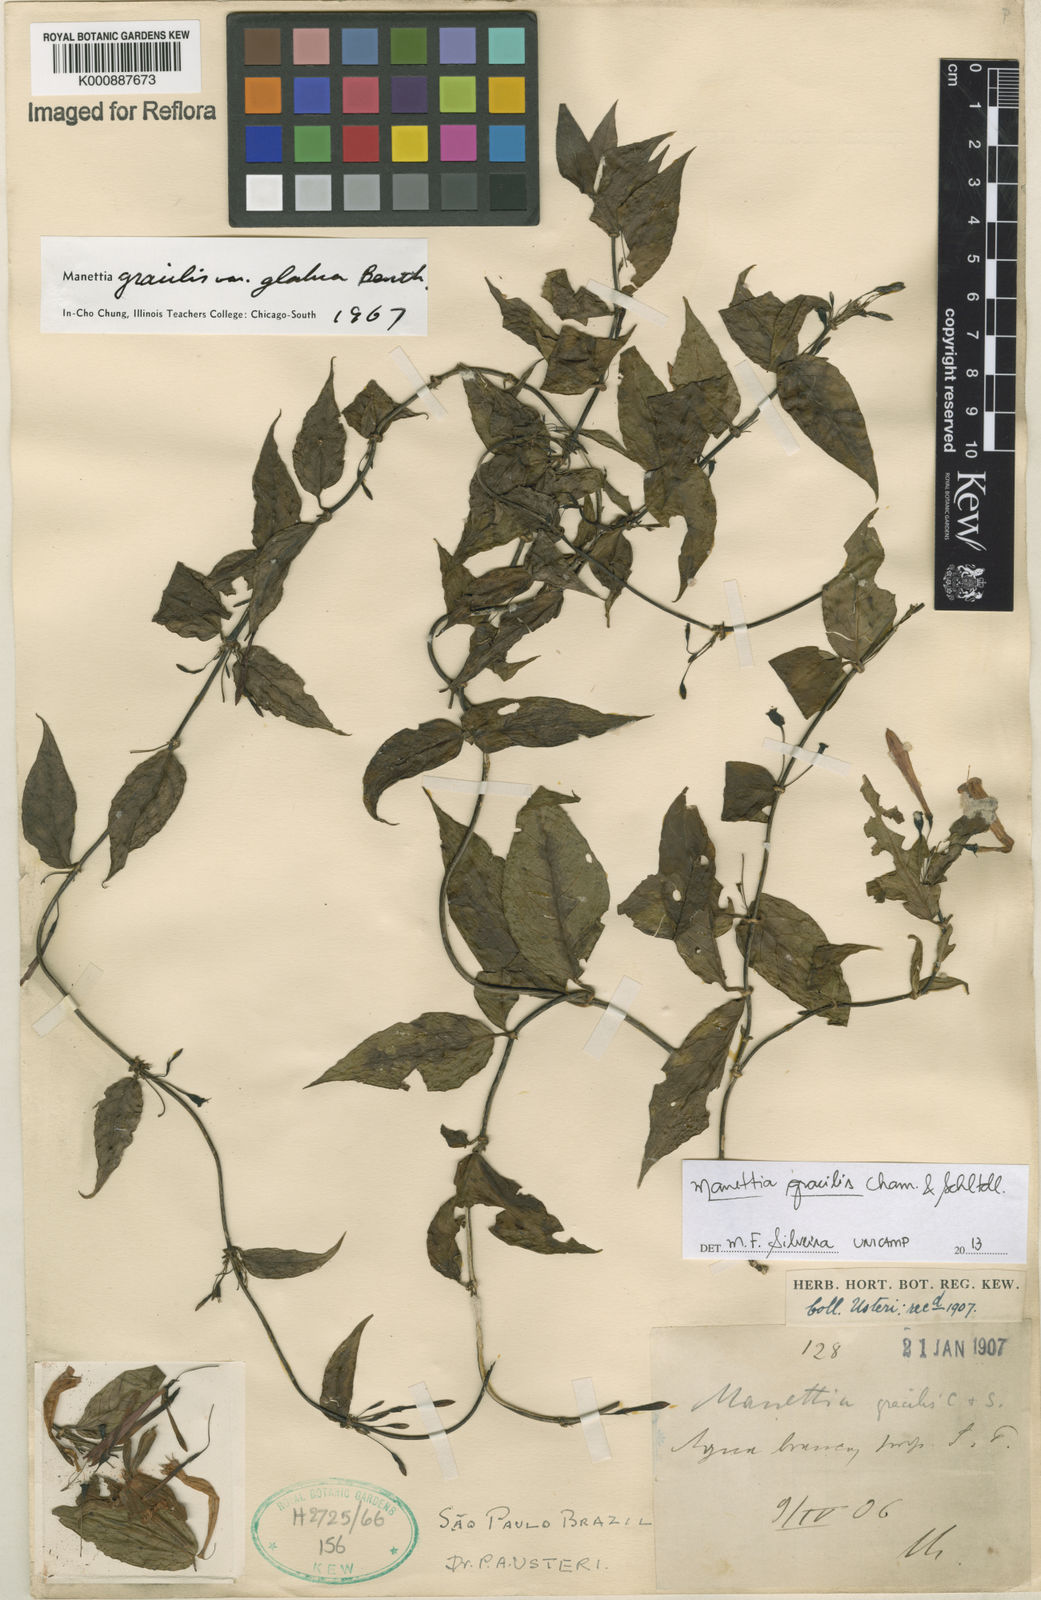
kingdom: Plantae
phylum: Tracheophyta
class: Magnoliopsida
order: Gentianales
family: Rubiaceae
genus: Manettia
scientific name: Manettia gracilis
